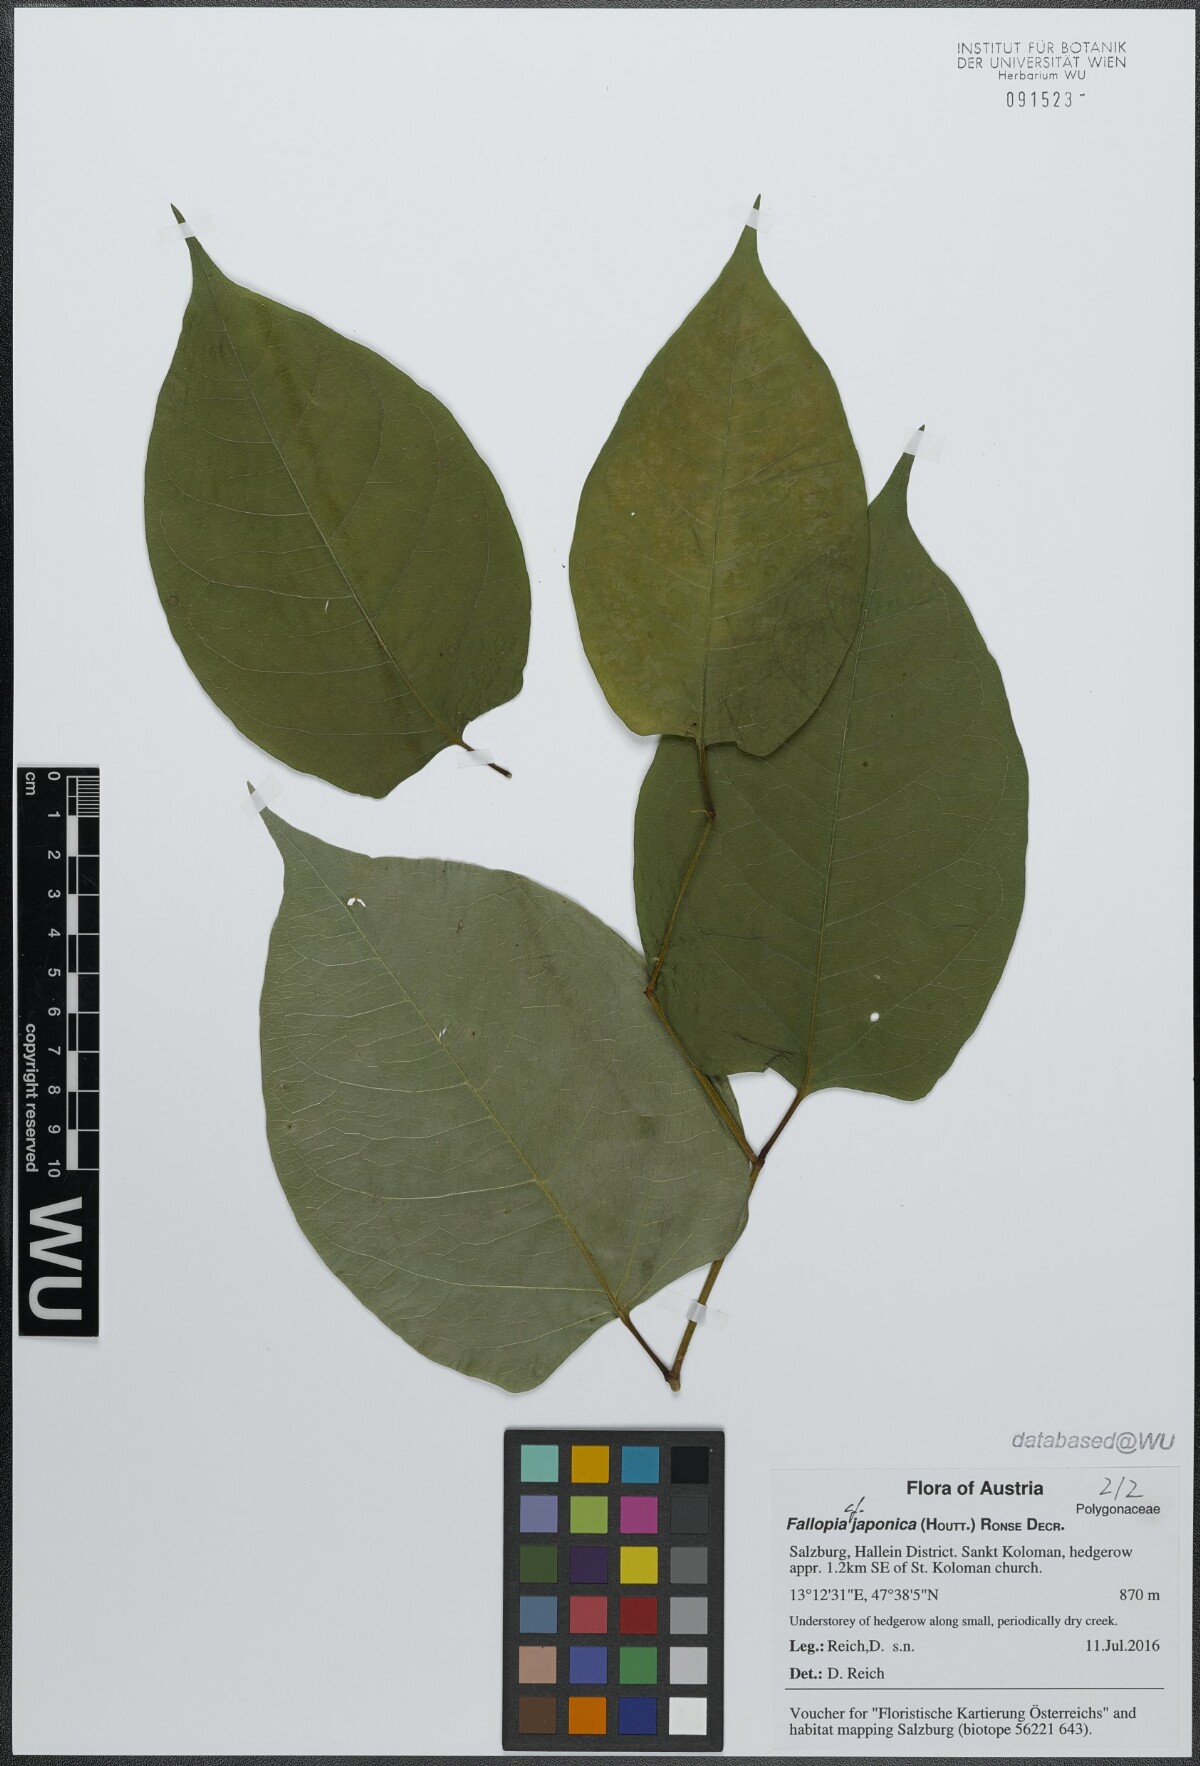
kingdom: Plantae
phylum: Tracheophyta
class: Magnoliopsida
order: Caryophyllales
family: Polygonaceae
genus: Reynoutria
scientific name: Reynoutria japonica
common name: Japanese knotweed
